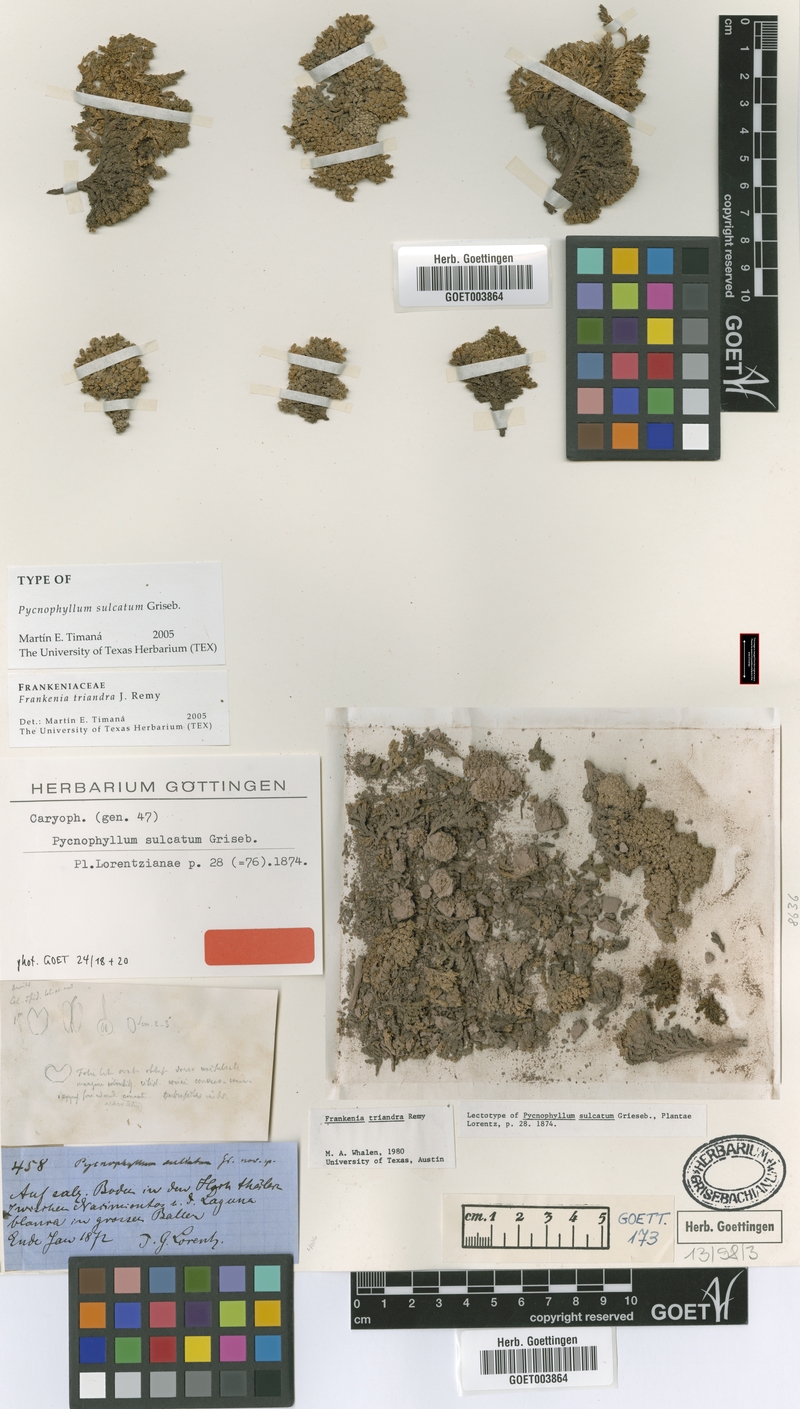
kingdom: Plantae
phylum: Tracheophyta
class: Magnoliopsida
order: Caryophyllales
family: Frankeniaceae
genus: Frankenia
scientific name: Frankenia triandra
